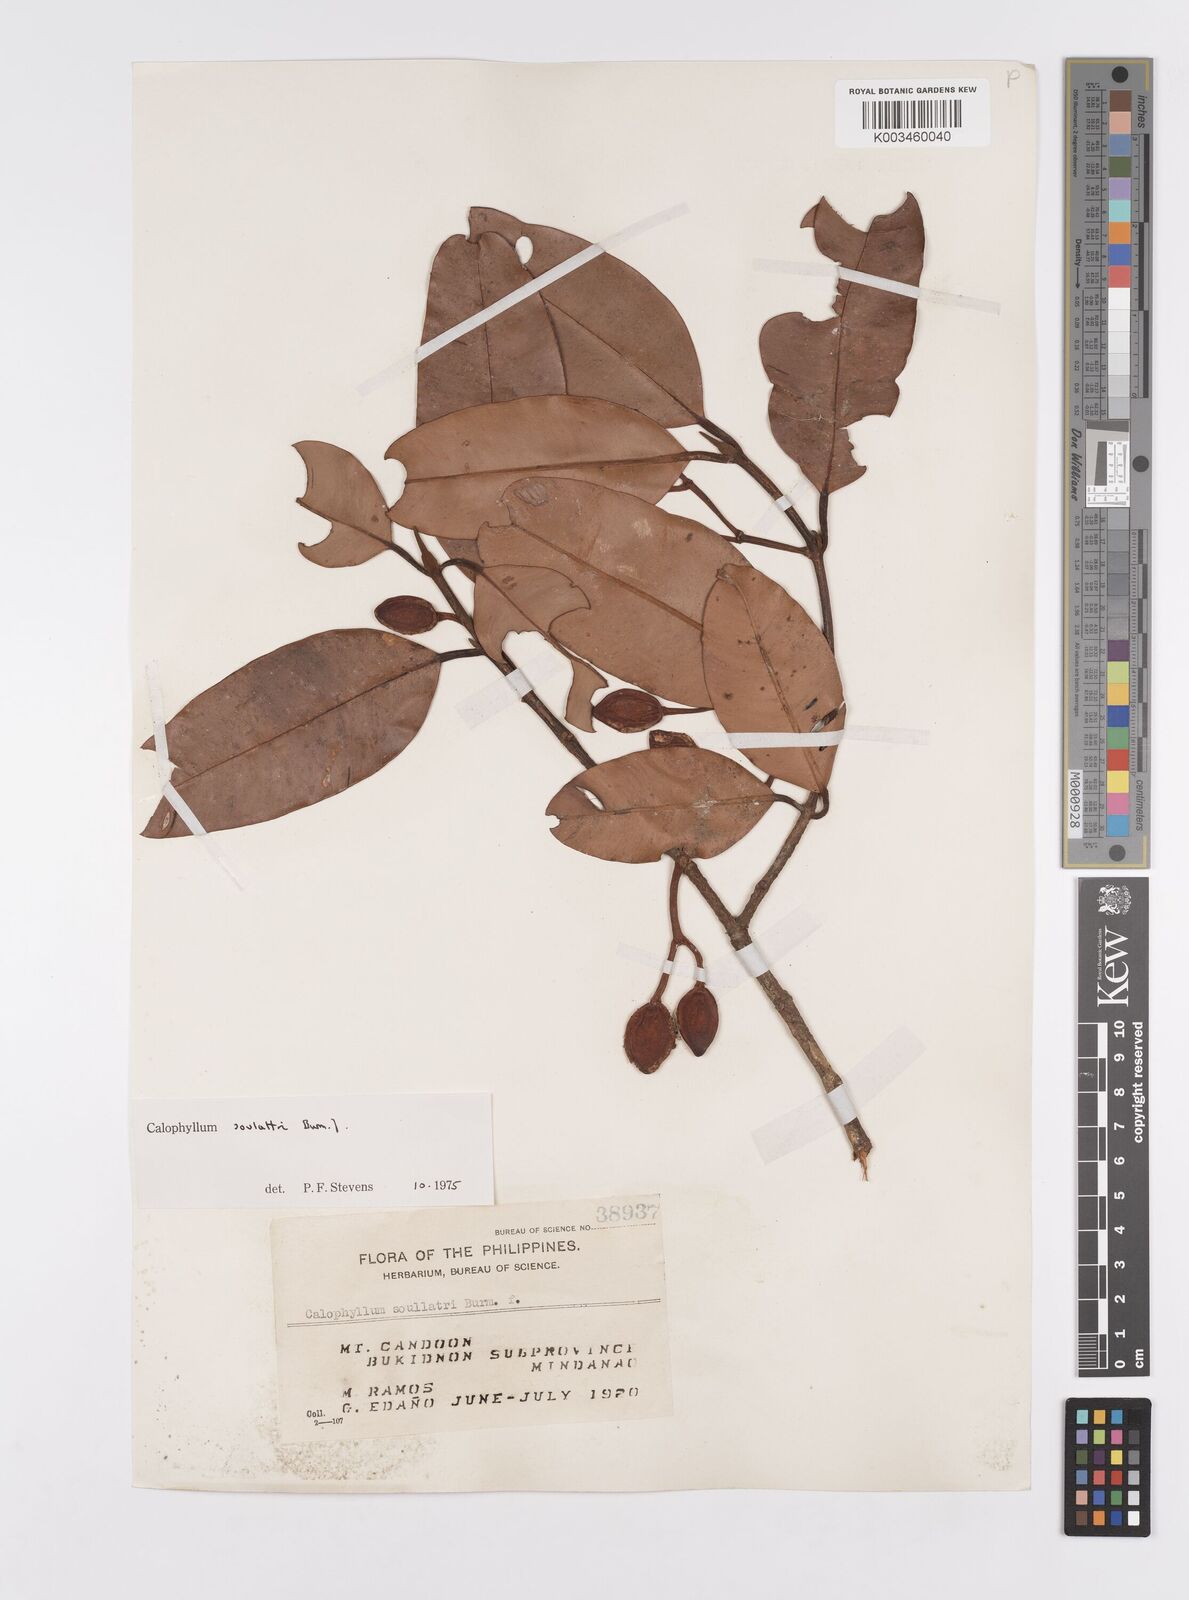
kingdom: Plantae
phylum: Tracheophyta
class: Magnoliopsida
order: Malpighiales
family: Calophyllaceae
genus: Calophyllum
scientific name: Calophyllum soulattri
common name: Bitangoor boonot
